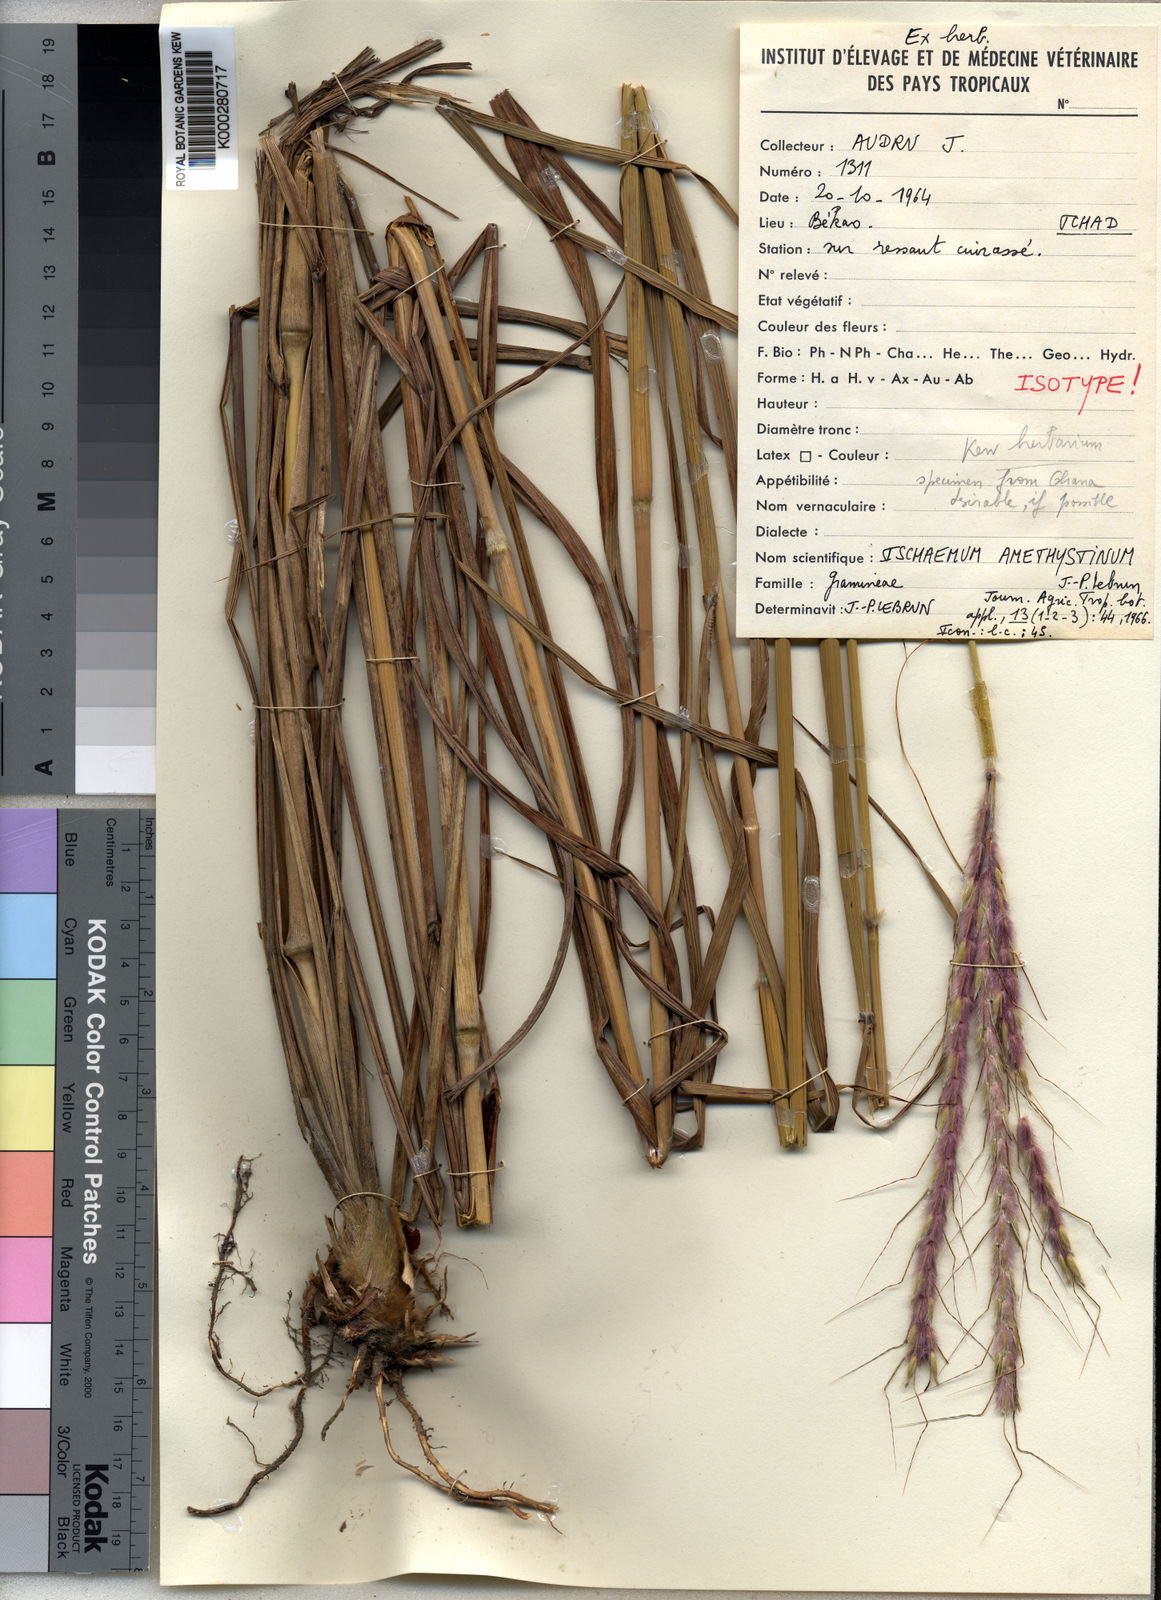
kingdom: Plantae
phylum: Tracheophyta
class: Liliopsida
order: Poales
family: Poaceae
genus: Ischaemum
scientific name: Ischaemum
